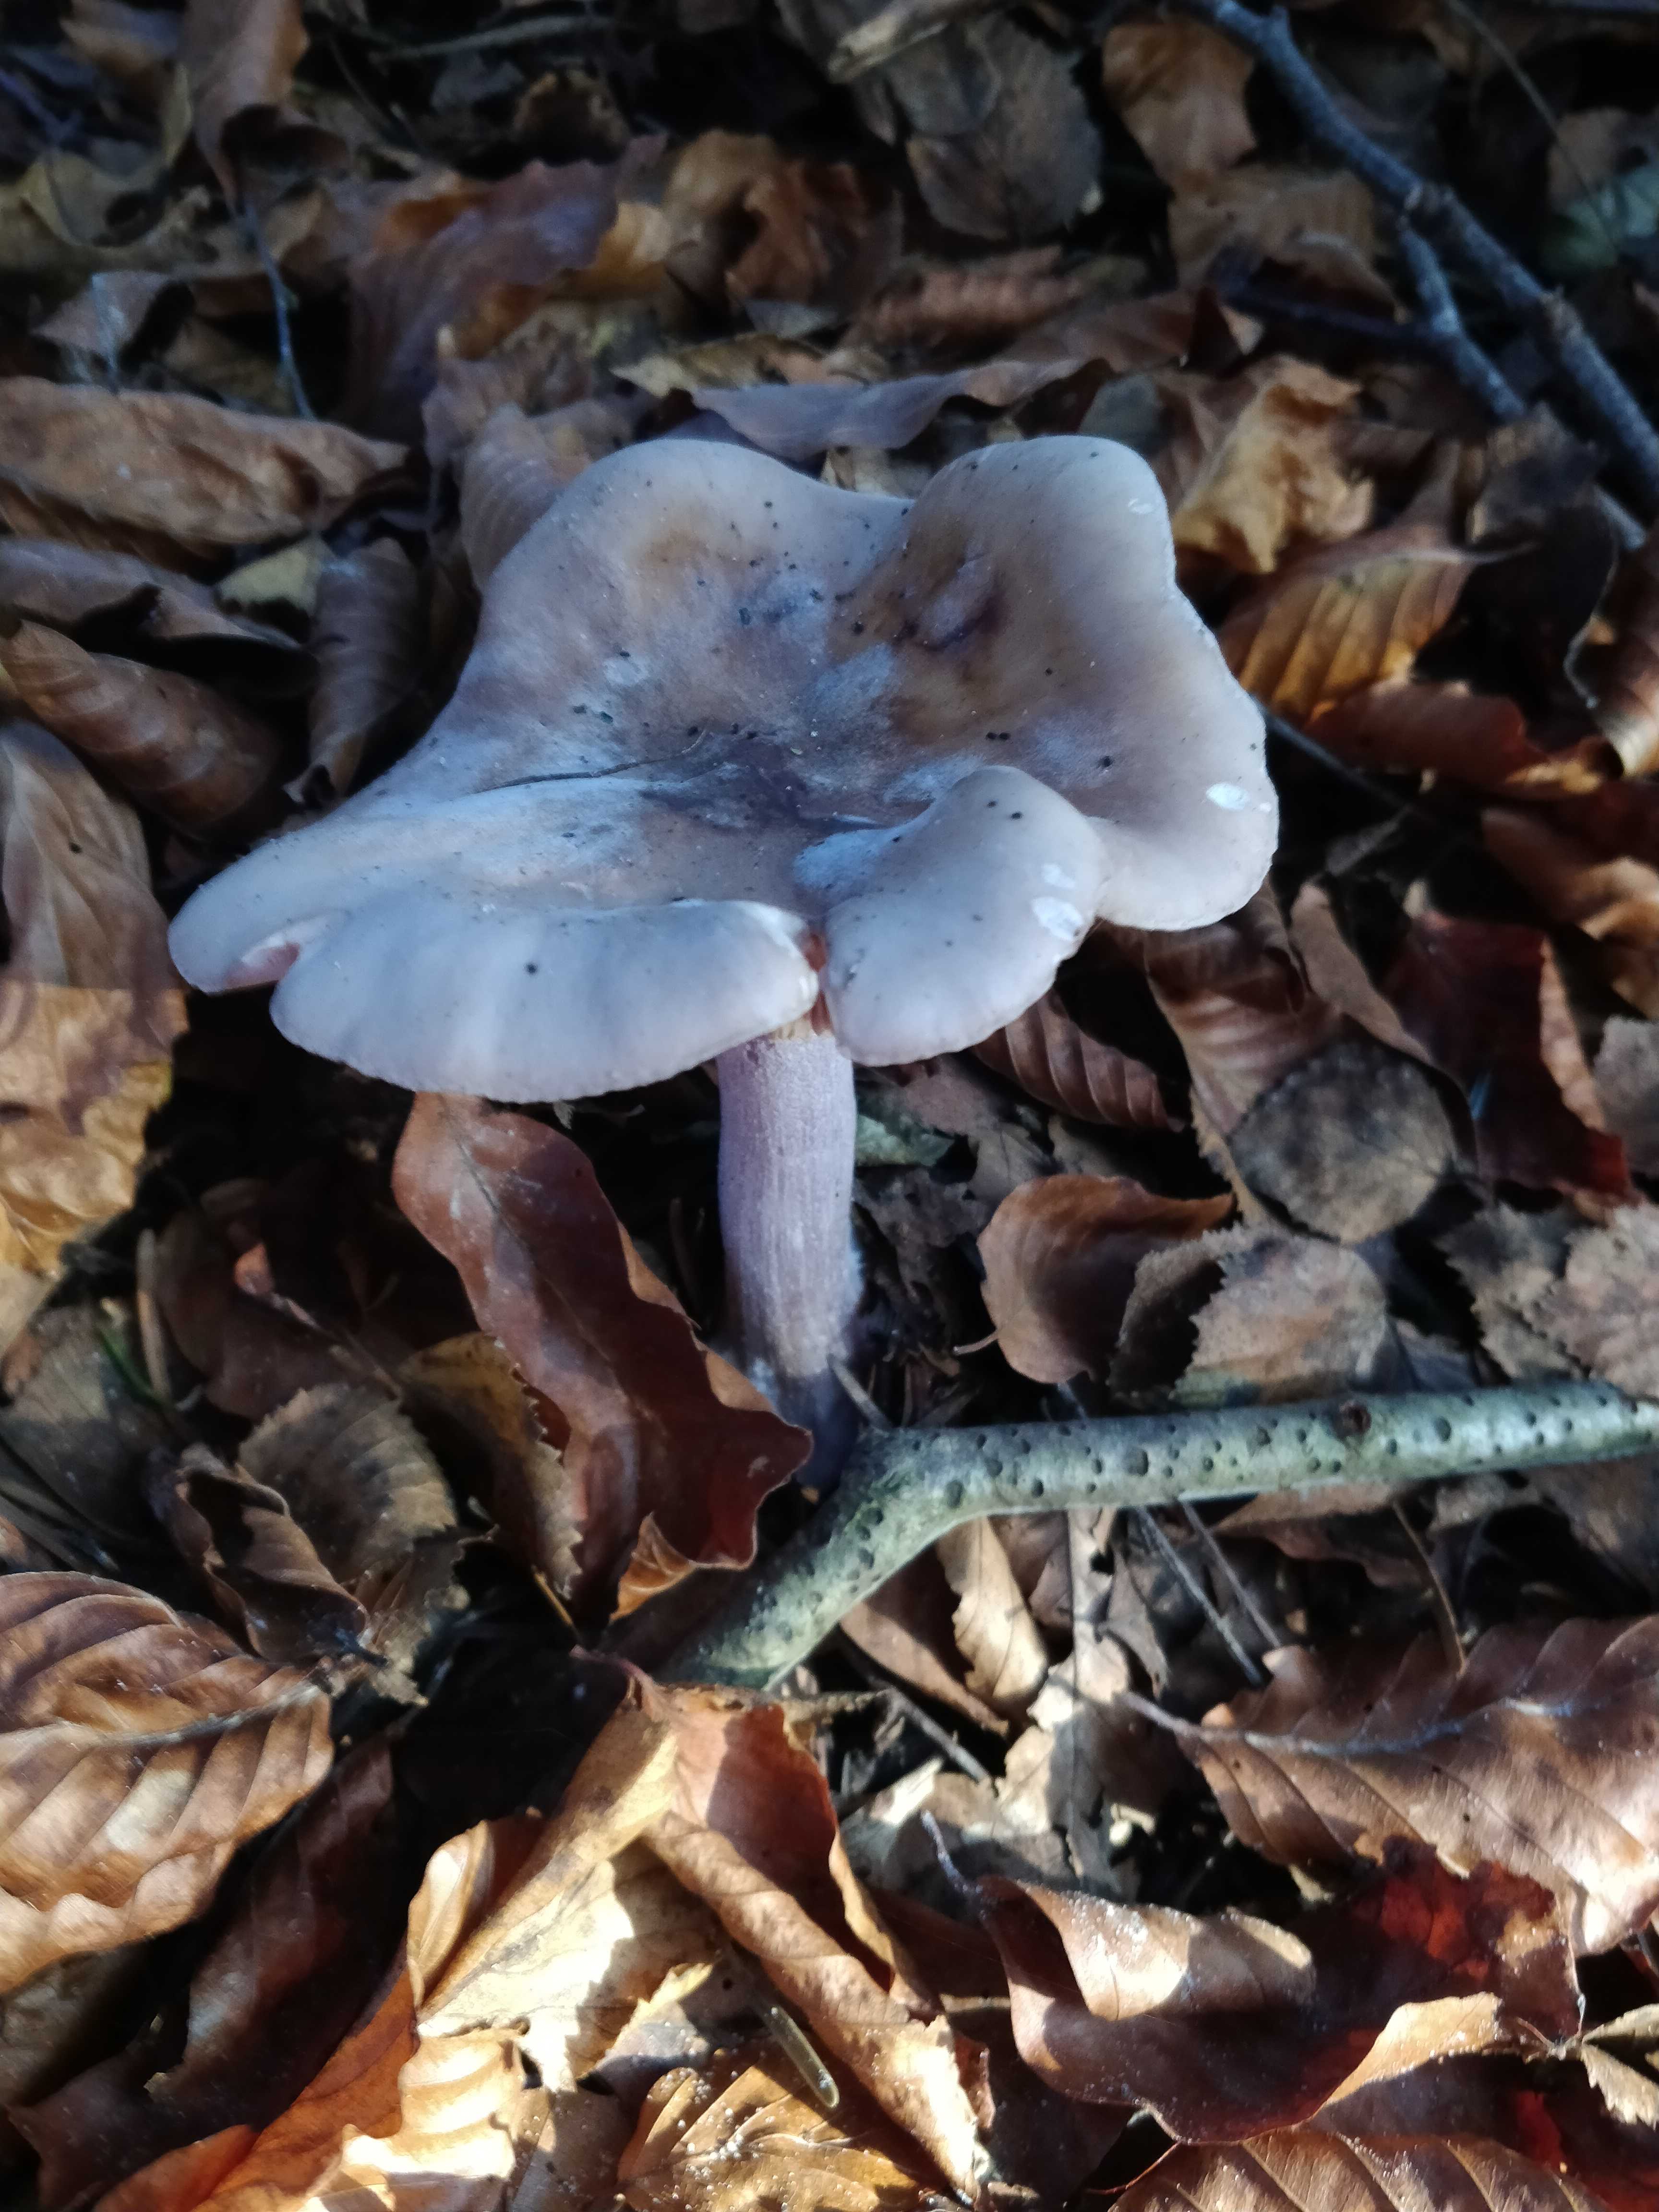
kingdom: Fungi
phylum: Basidiomycota
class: Agaricomycetes
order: Agaricales
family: Tricholomataceae
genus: Lepista
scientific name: Lepista nuda
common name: violet hekseringshat
